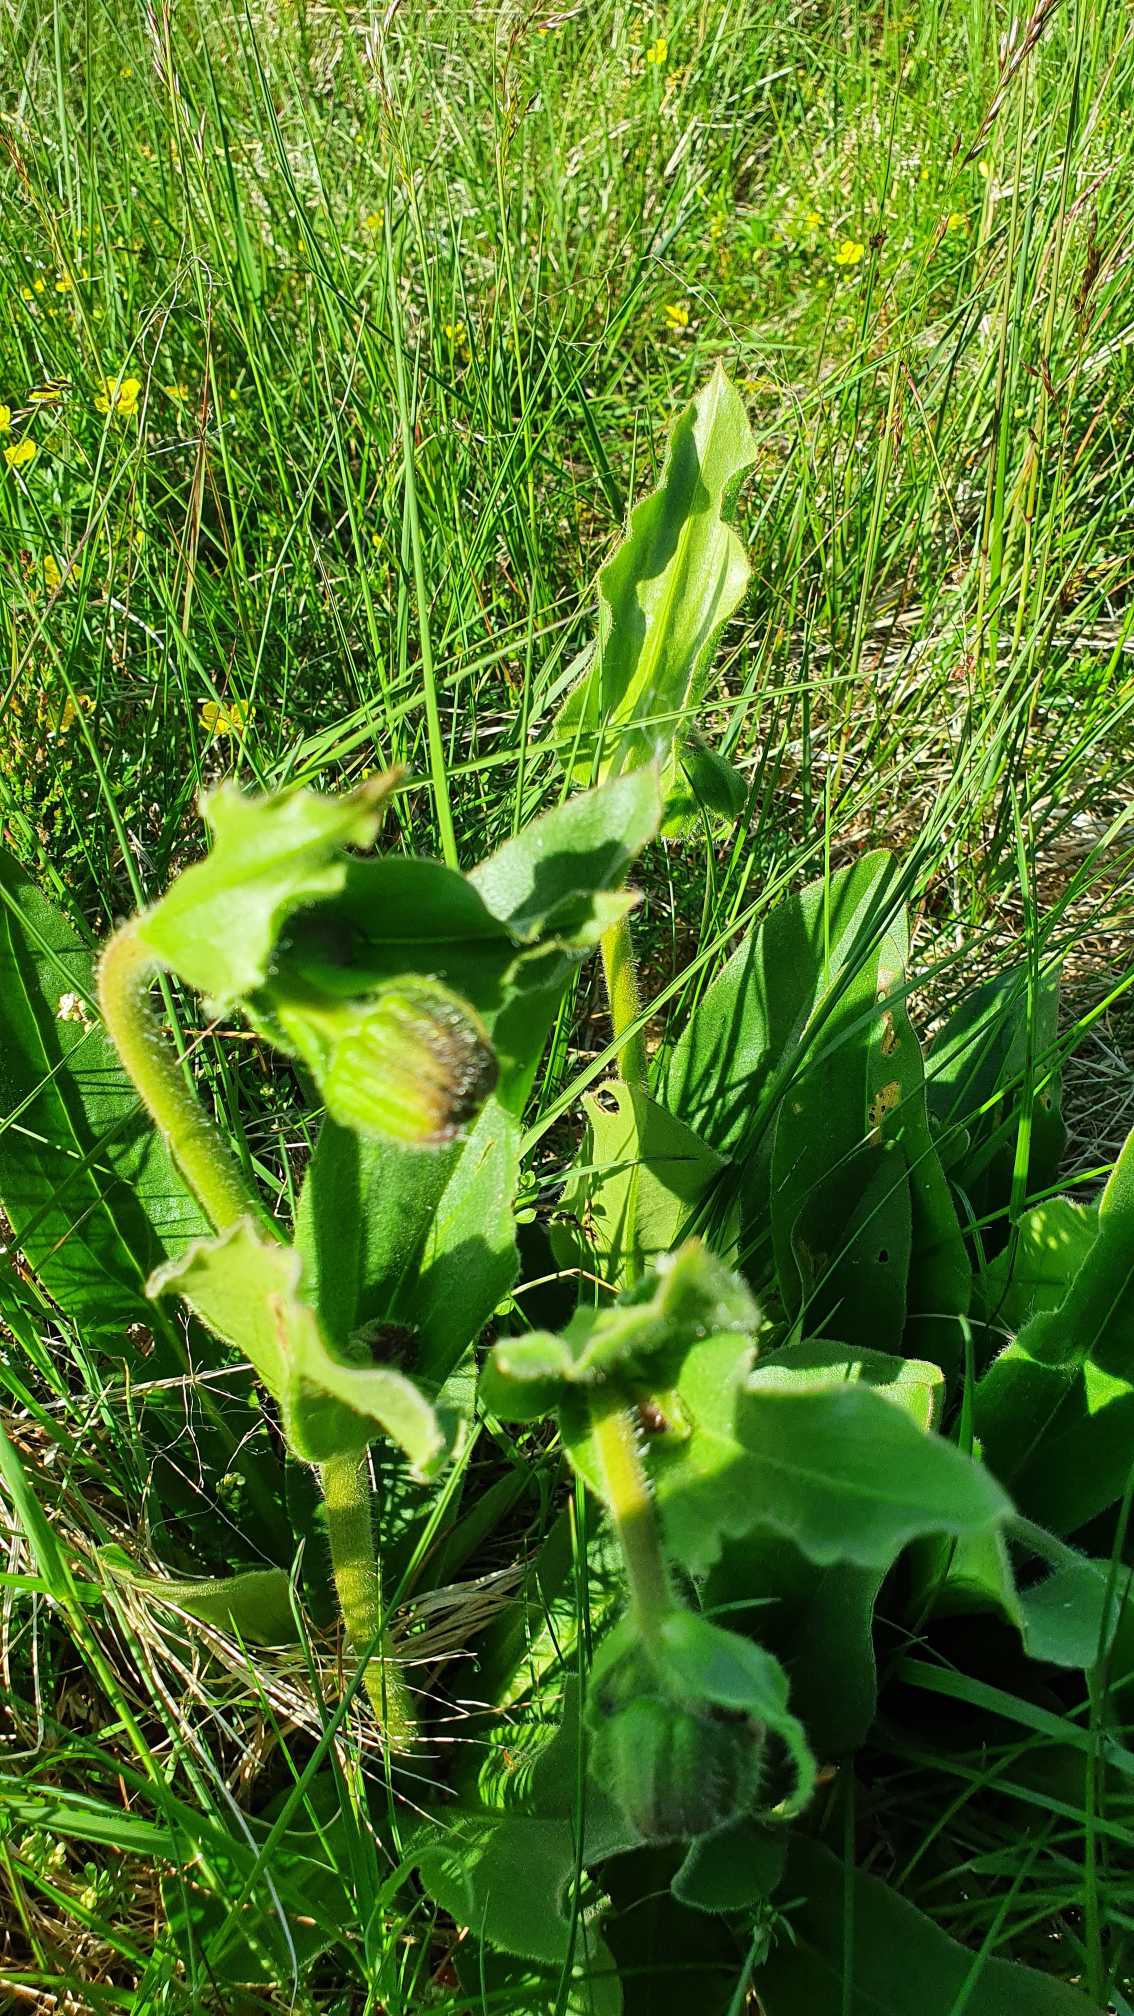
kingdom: Plantae
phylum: Tracheophyta
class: Magnoliopsida
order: Asterales
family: Asteraceae
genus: Arnica
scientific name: Arnica montana
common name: Guldblomme
